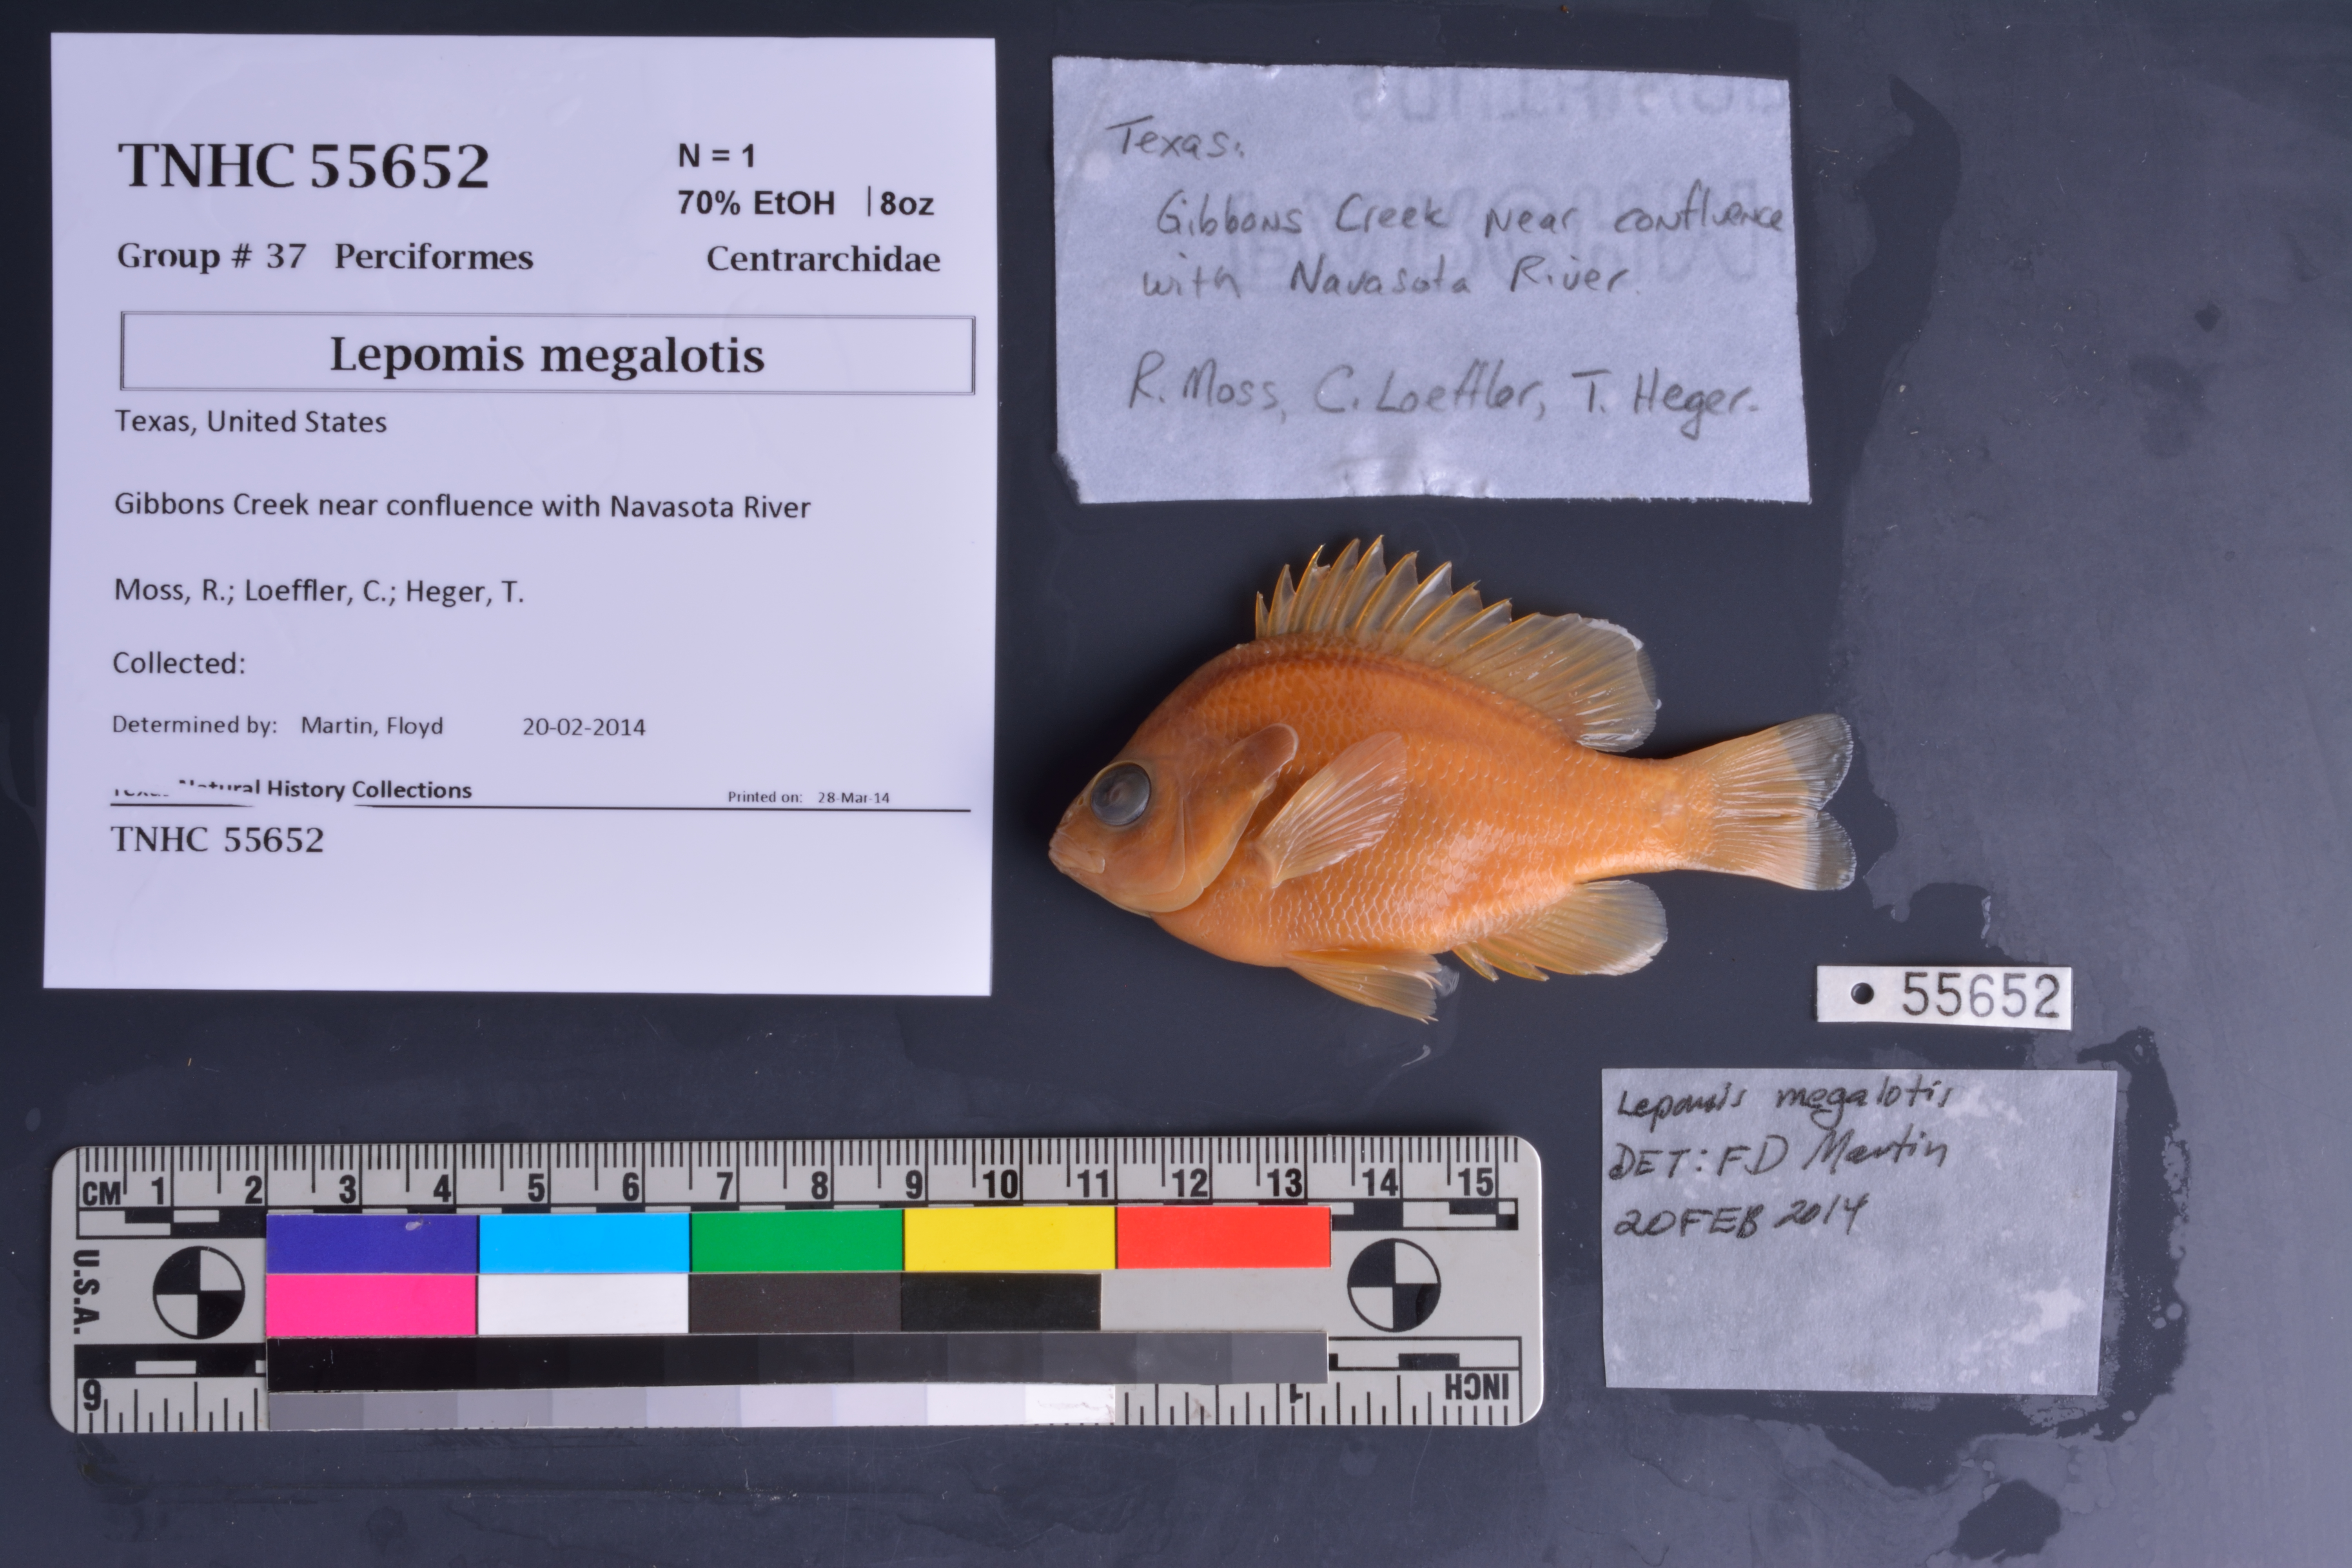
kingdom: Animalia
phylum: Chordata
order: Perciformes
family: Centrarchidae
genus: Lepomis
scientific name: Lepomis megalotis
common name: Longear sunfish
